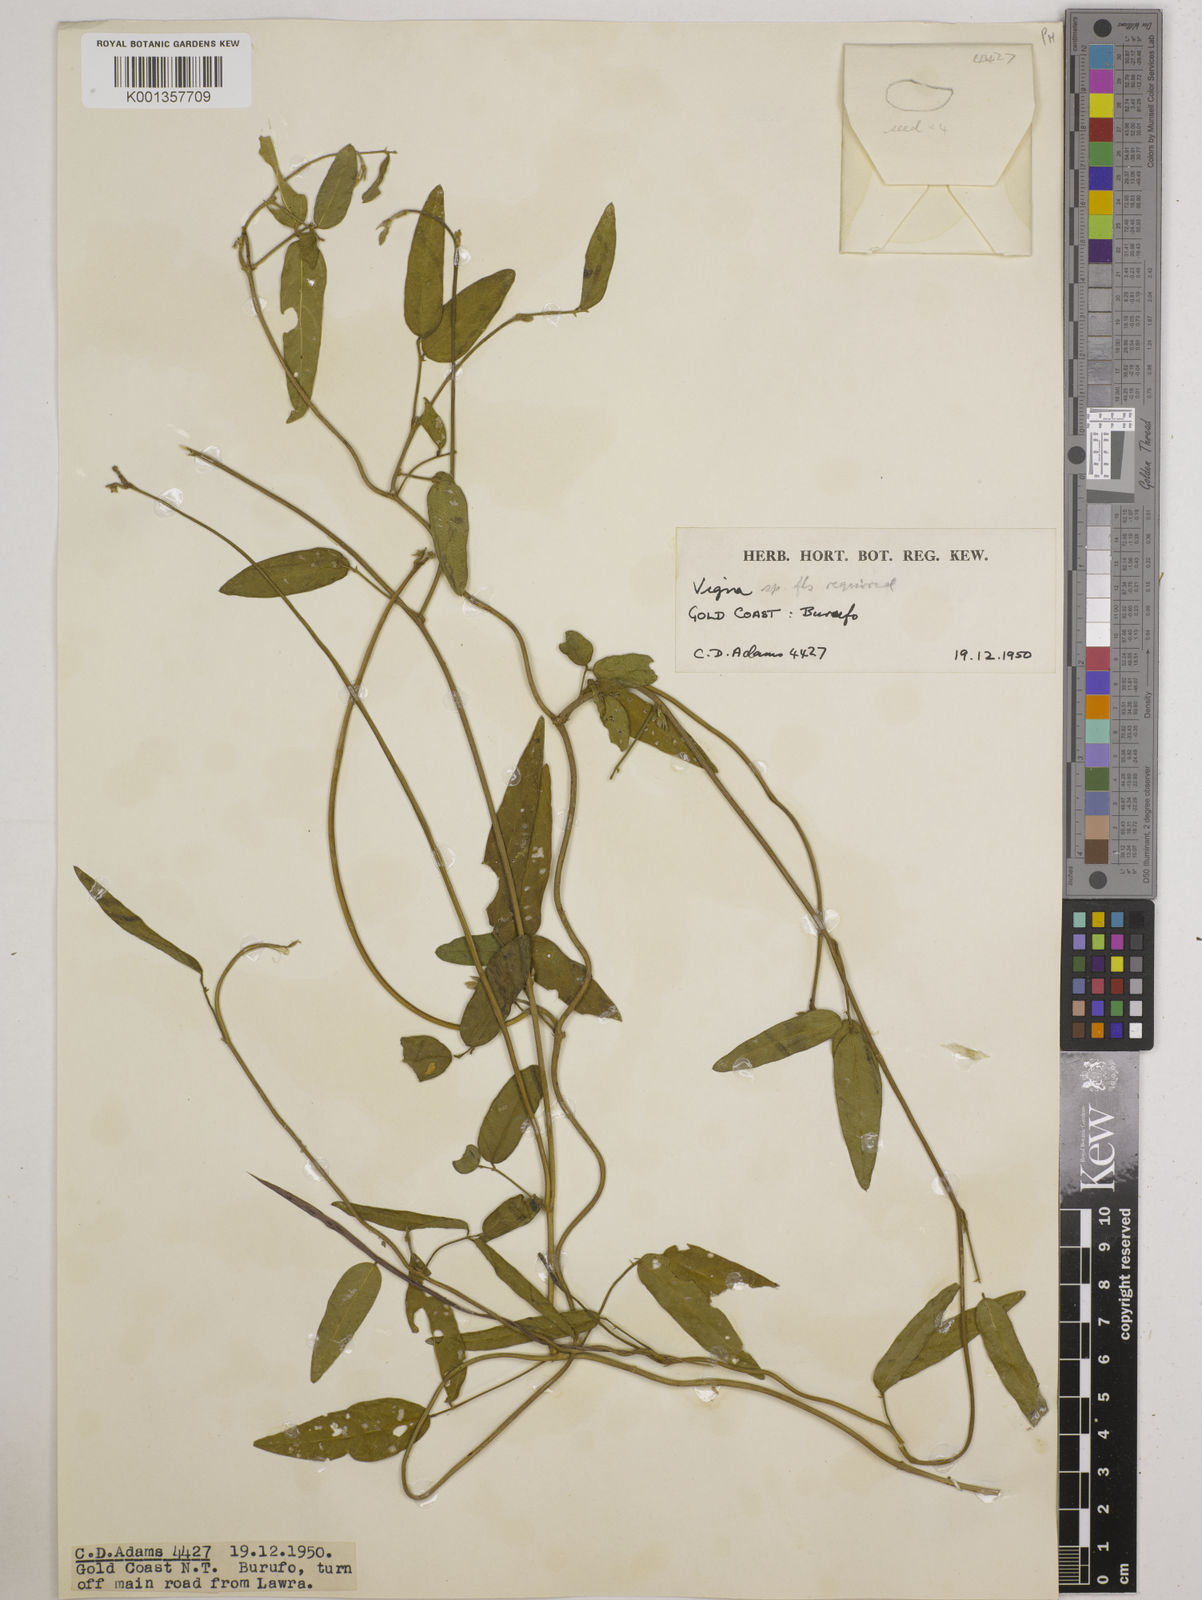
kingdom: Plantae
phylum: Tracheophyta
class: Magnoliopsida
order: Fabales
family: Fabaceae
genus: Vigna
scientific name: Vigna
